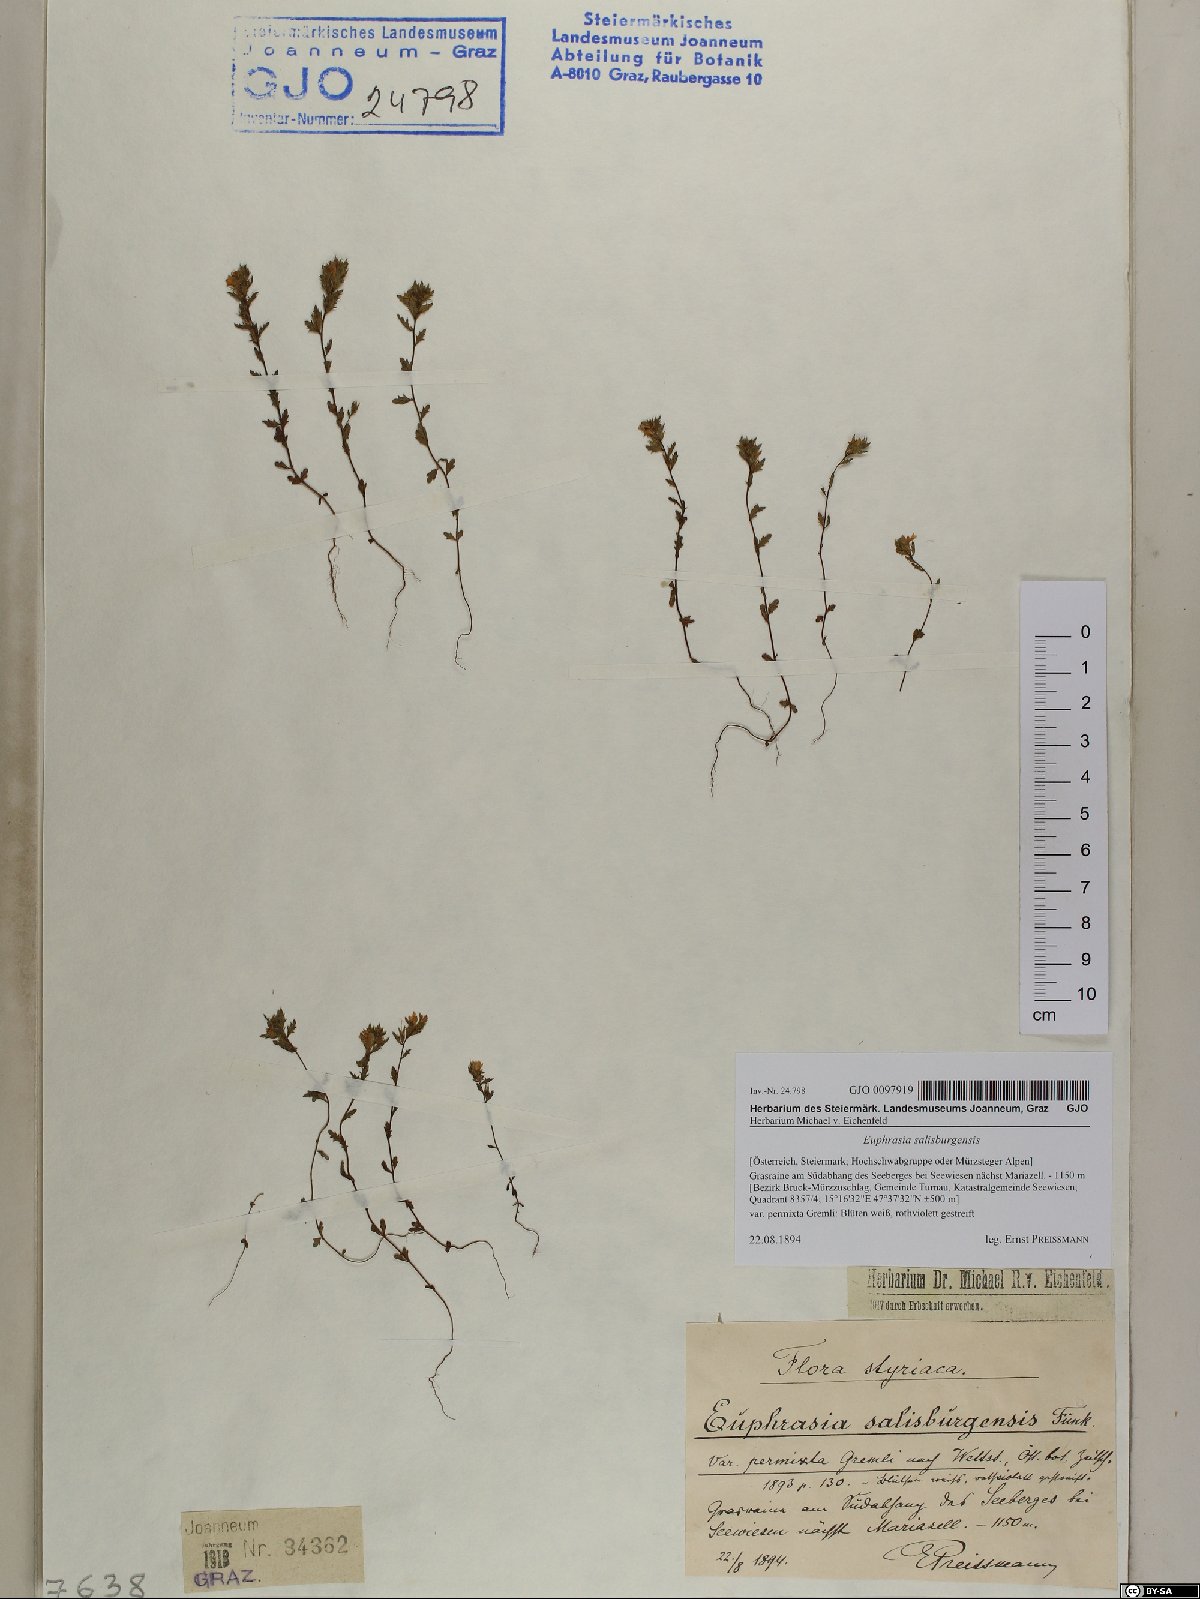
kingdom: Plantae
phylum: Tracheophyta
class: Magnoliopsida
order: Lamiales
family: Orobanchaceae
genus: Euphrasia
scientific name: Euphrasia salisburgensis
